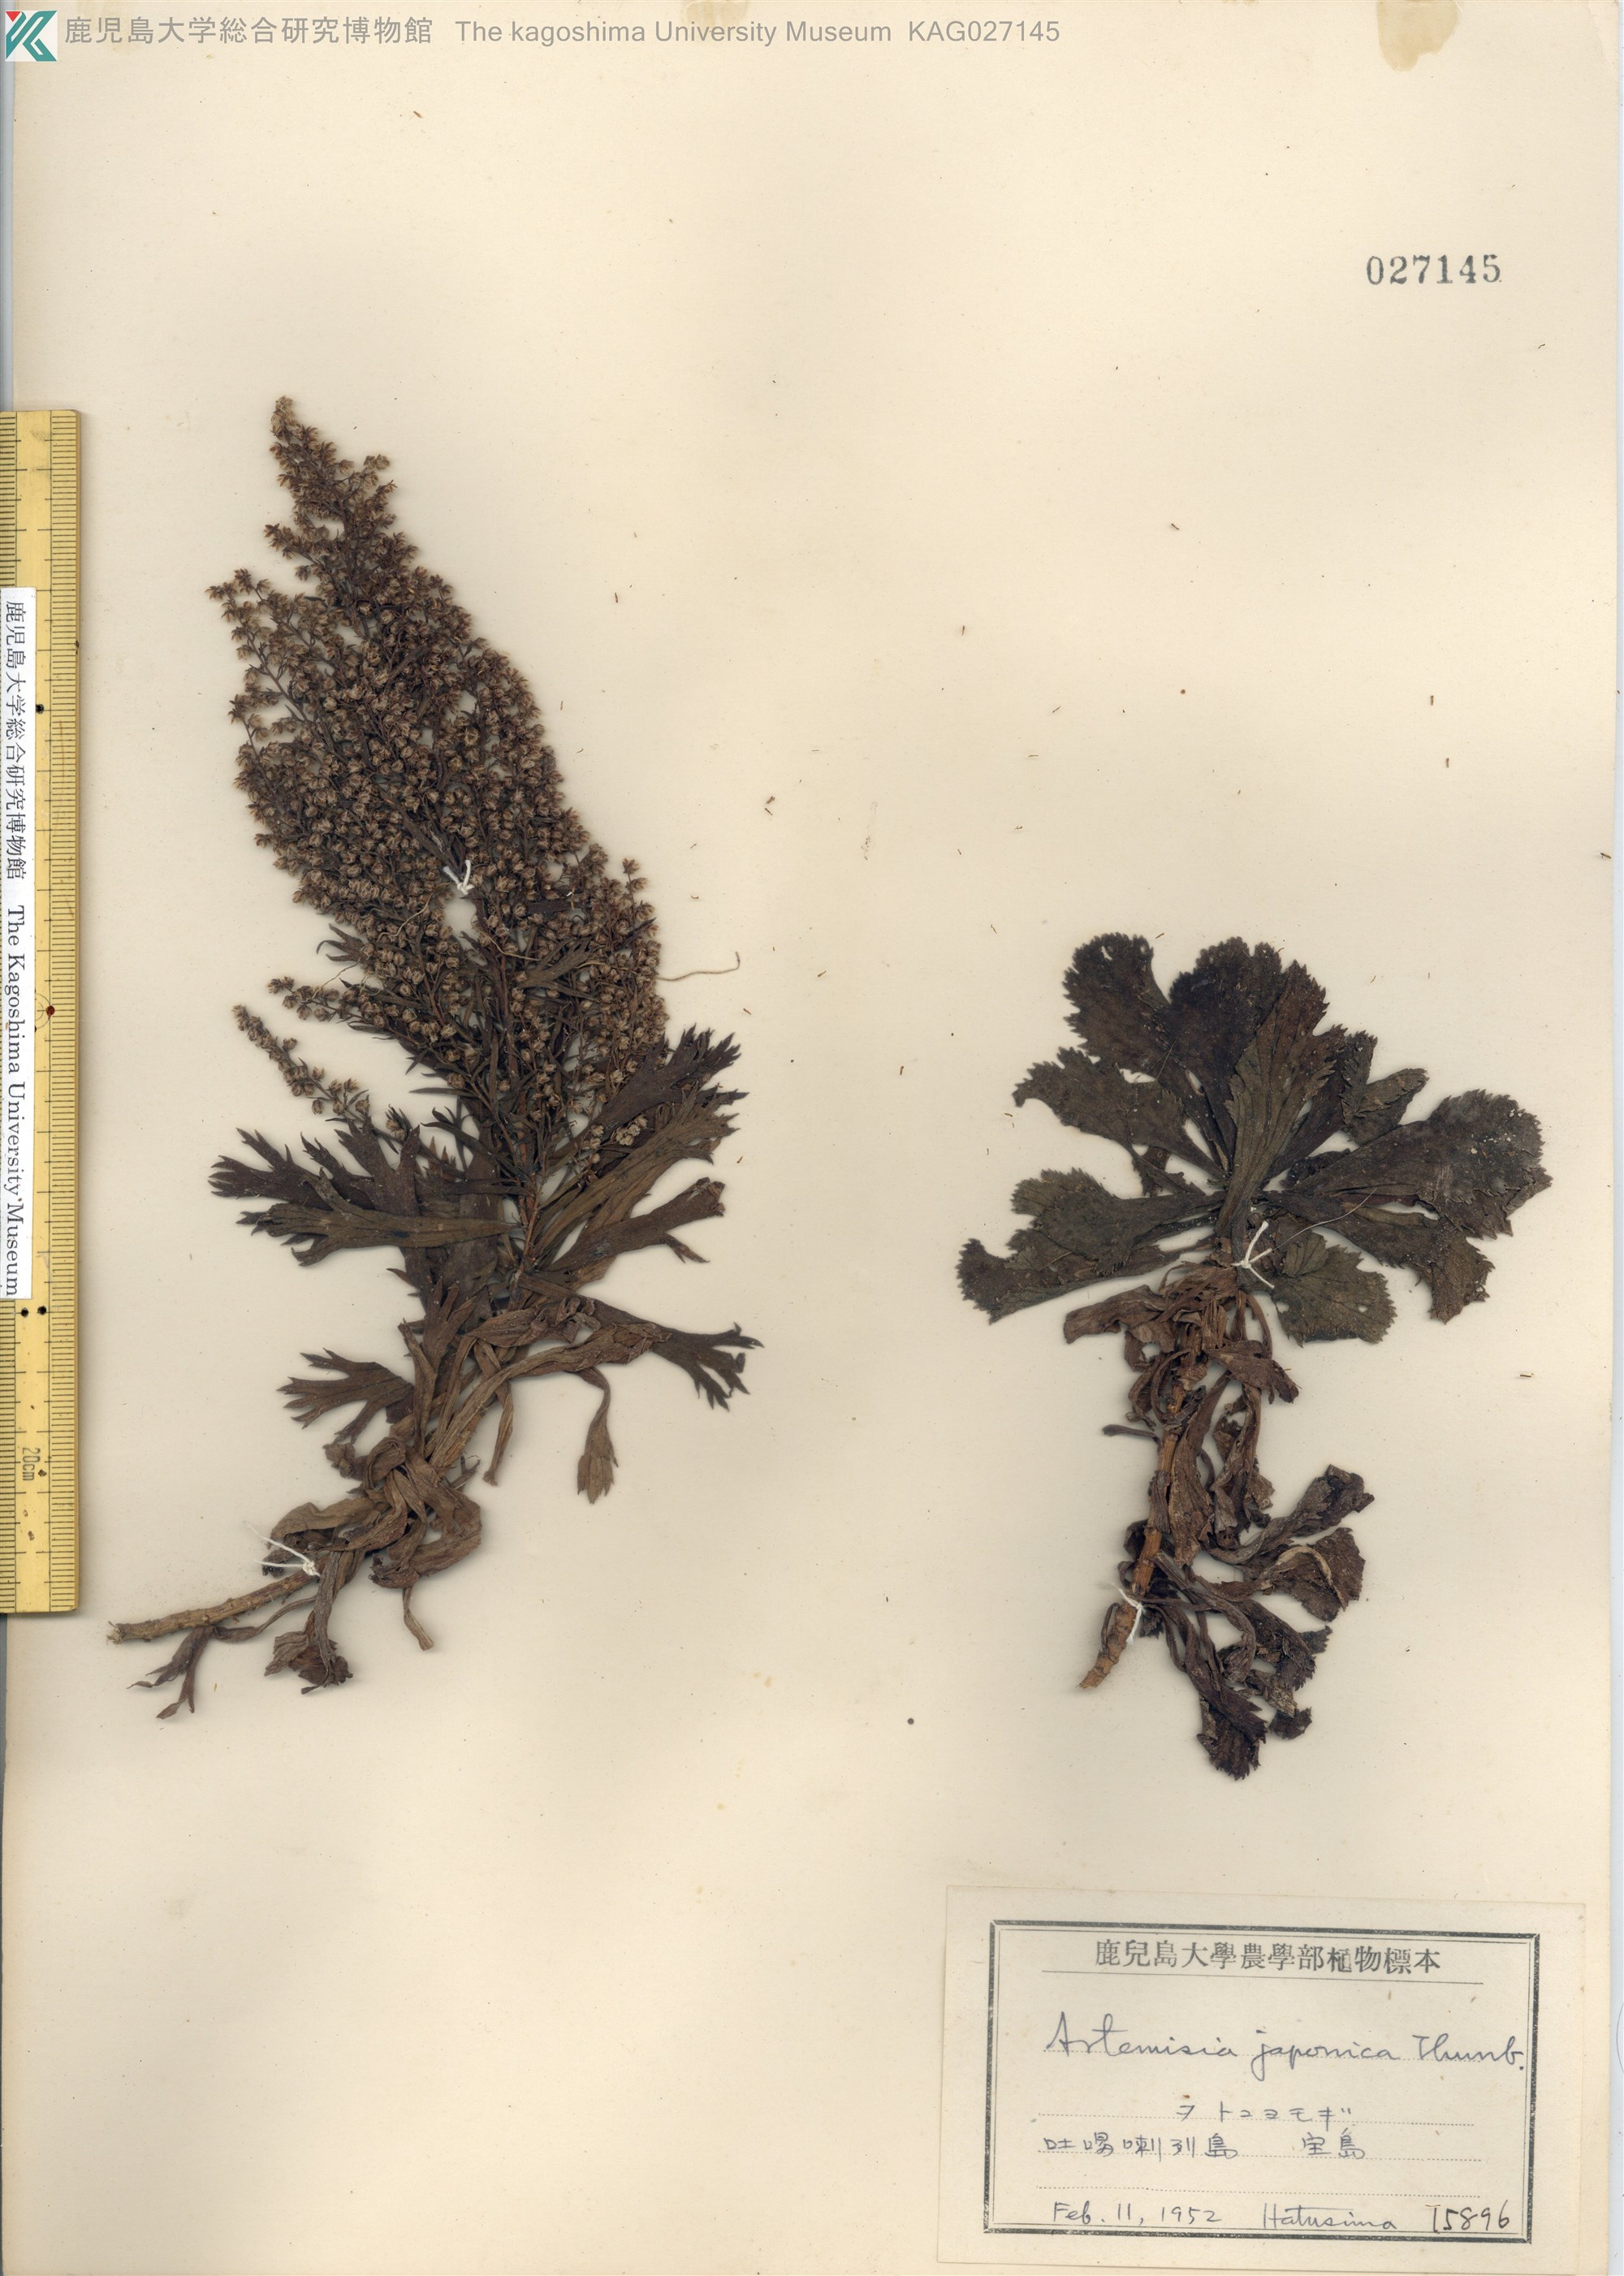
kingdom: Plantae
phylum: Tracheophyta
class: Magnoliopsida
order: Asterales
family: Asteraceae
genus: Artemisia
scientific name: Artemisia japonica
